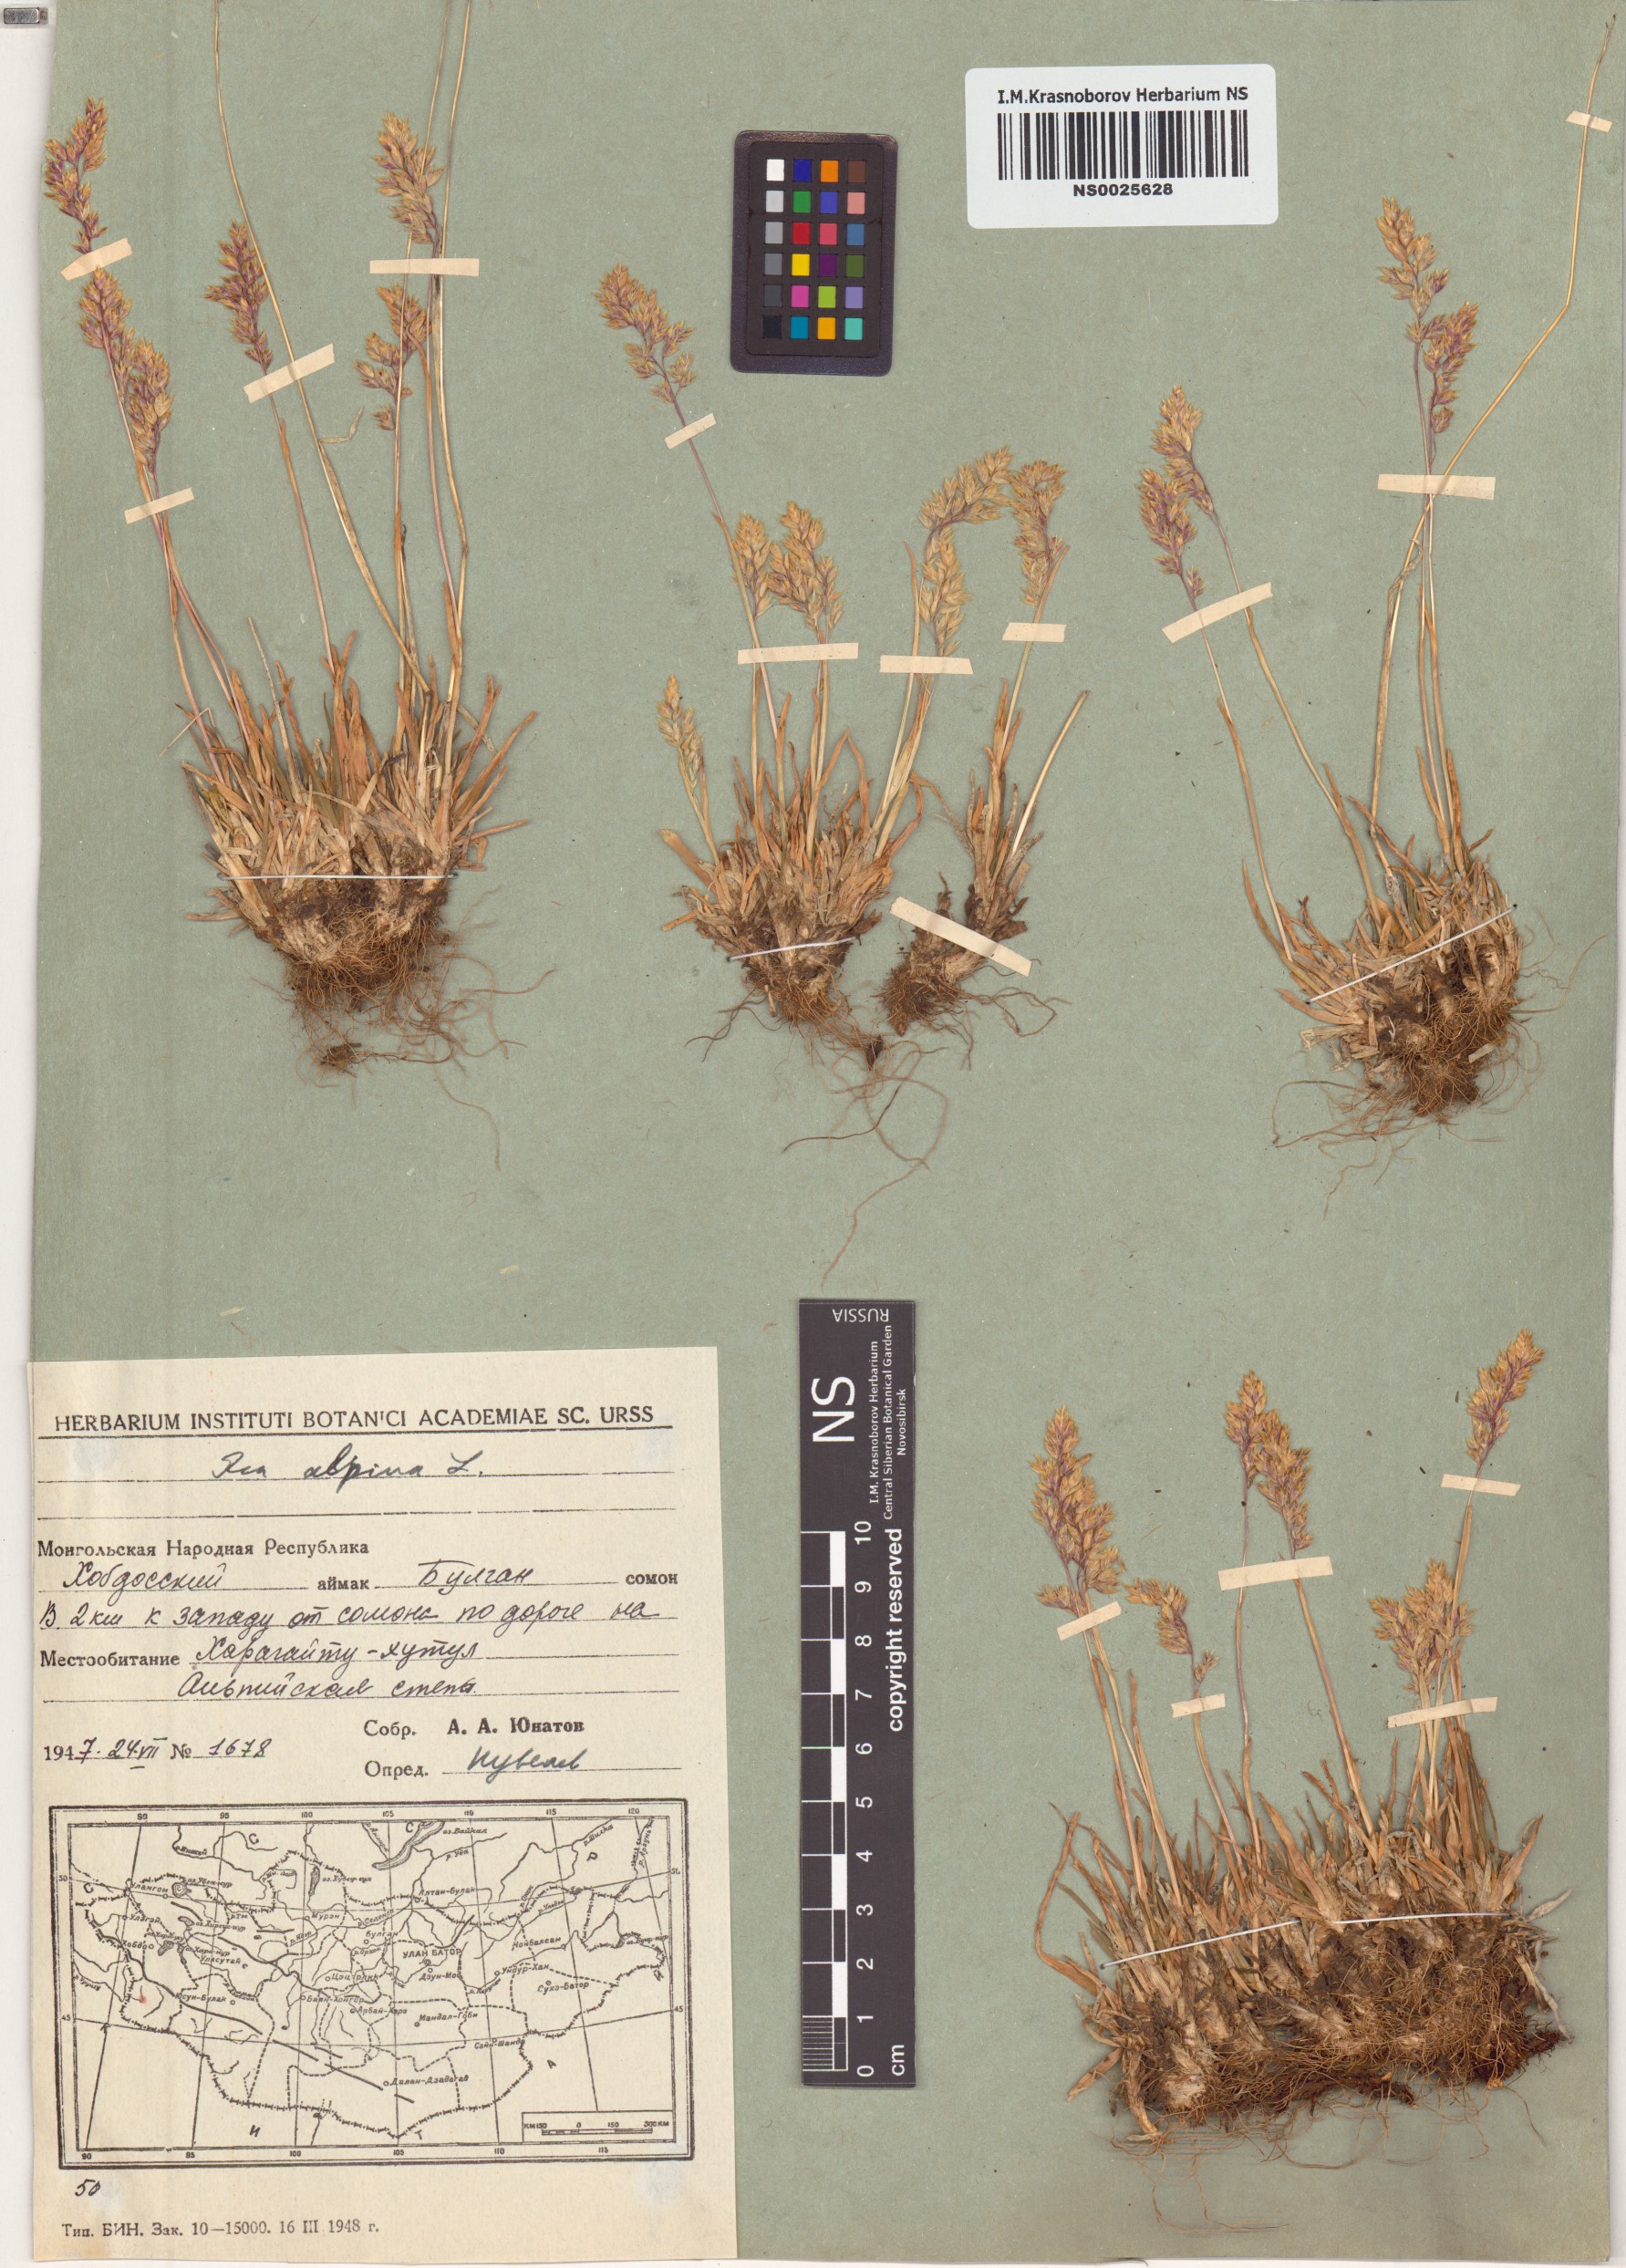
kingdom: Plantae
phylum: Tracheophyta
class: Liliopsida
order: Poales
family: Poaceae
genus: Poa
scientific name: Poa alpina
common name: Alpine bluegrass
